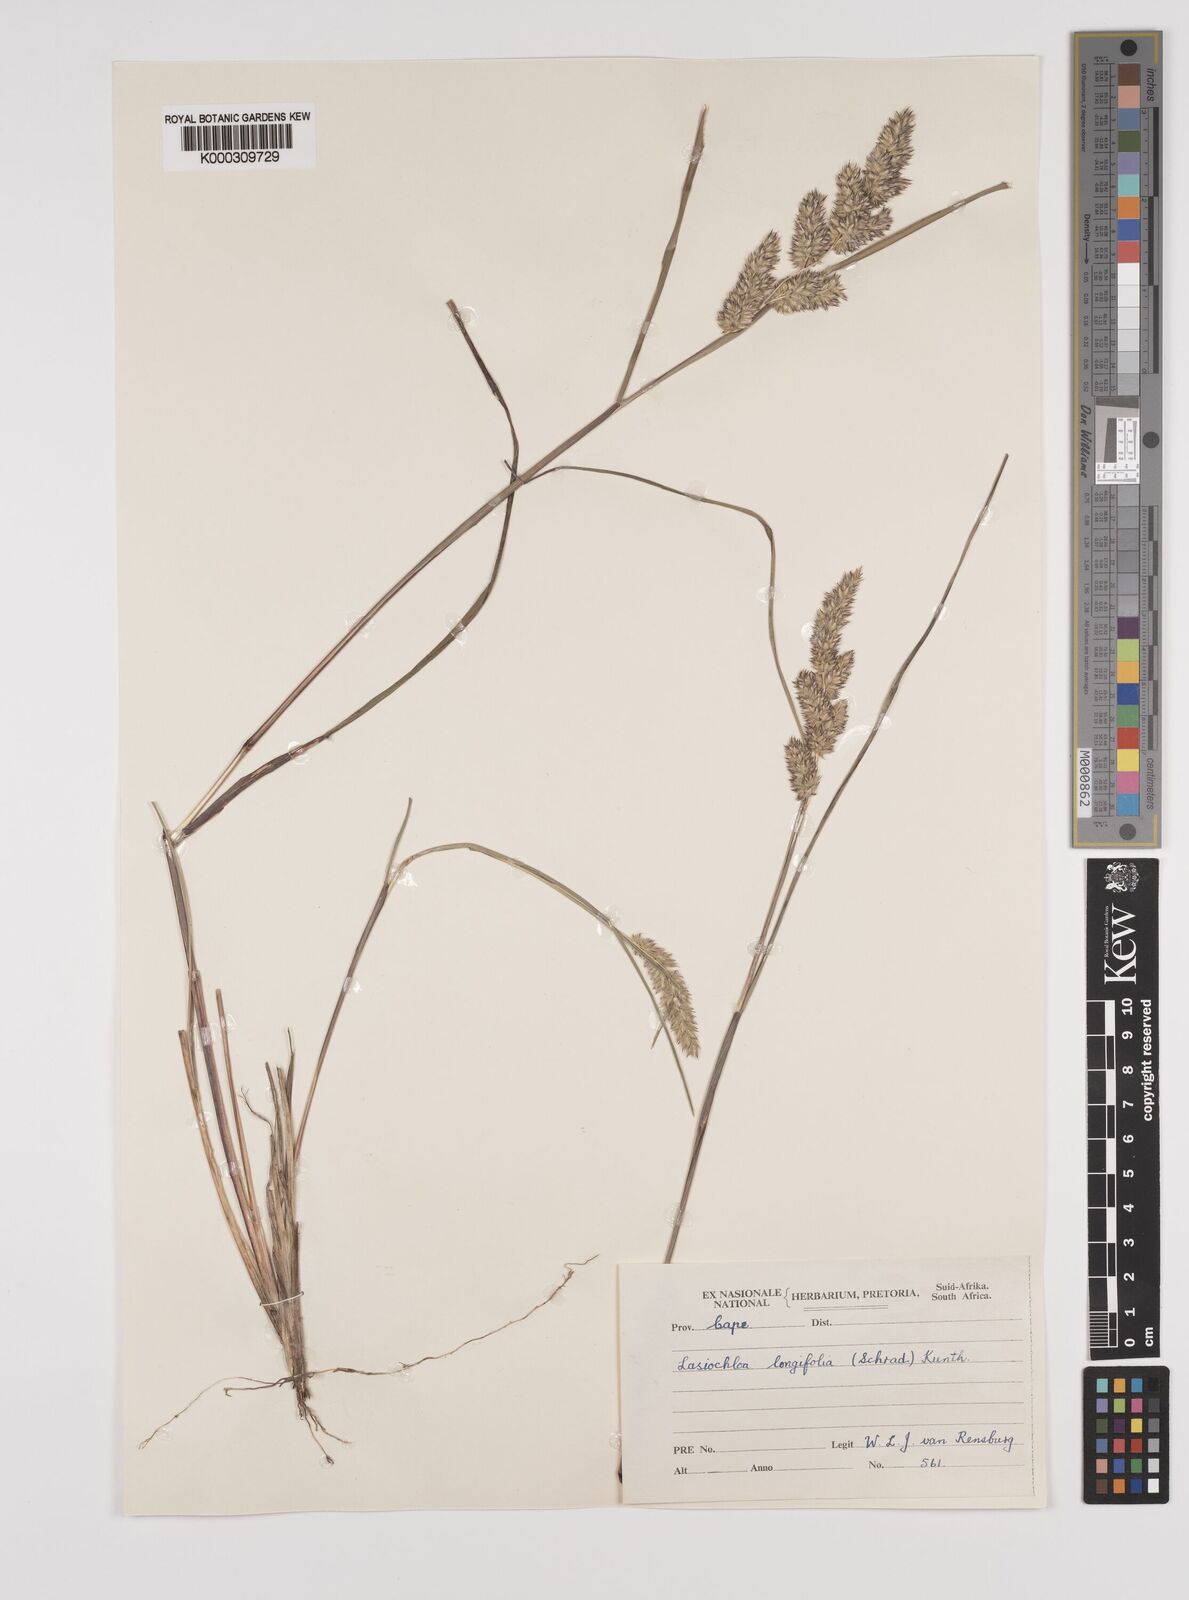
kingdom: Plantae
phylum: Tracheophyta
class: Liliopsida
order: Poales
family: Poaceae
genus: Tribolium
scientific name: Tribolium hispidum
